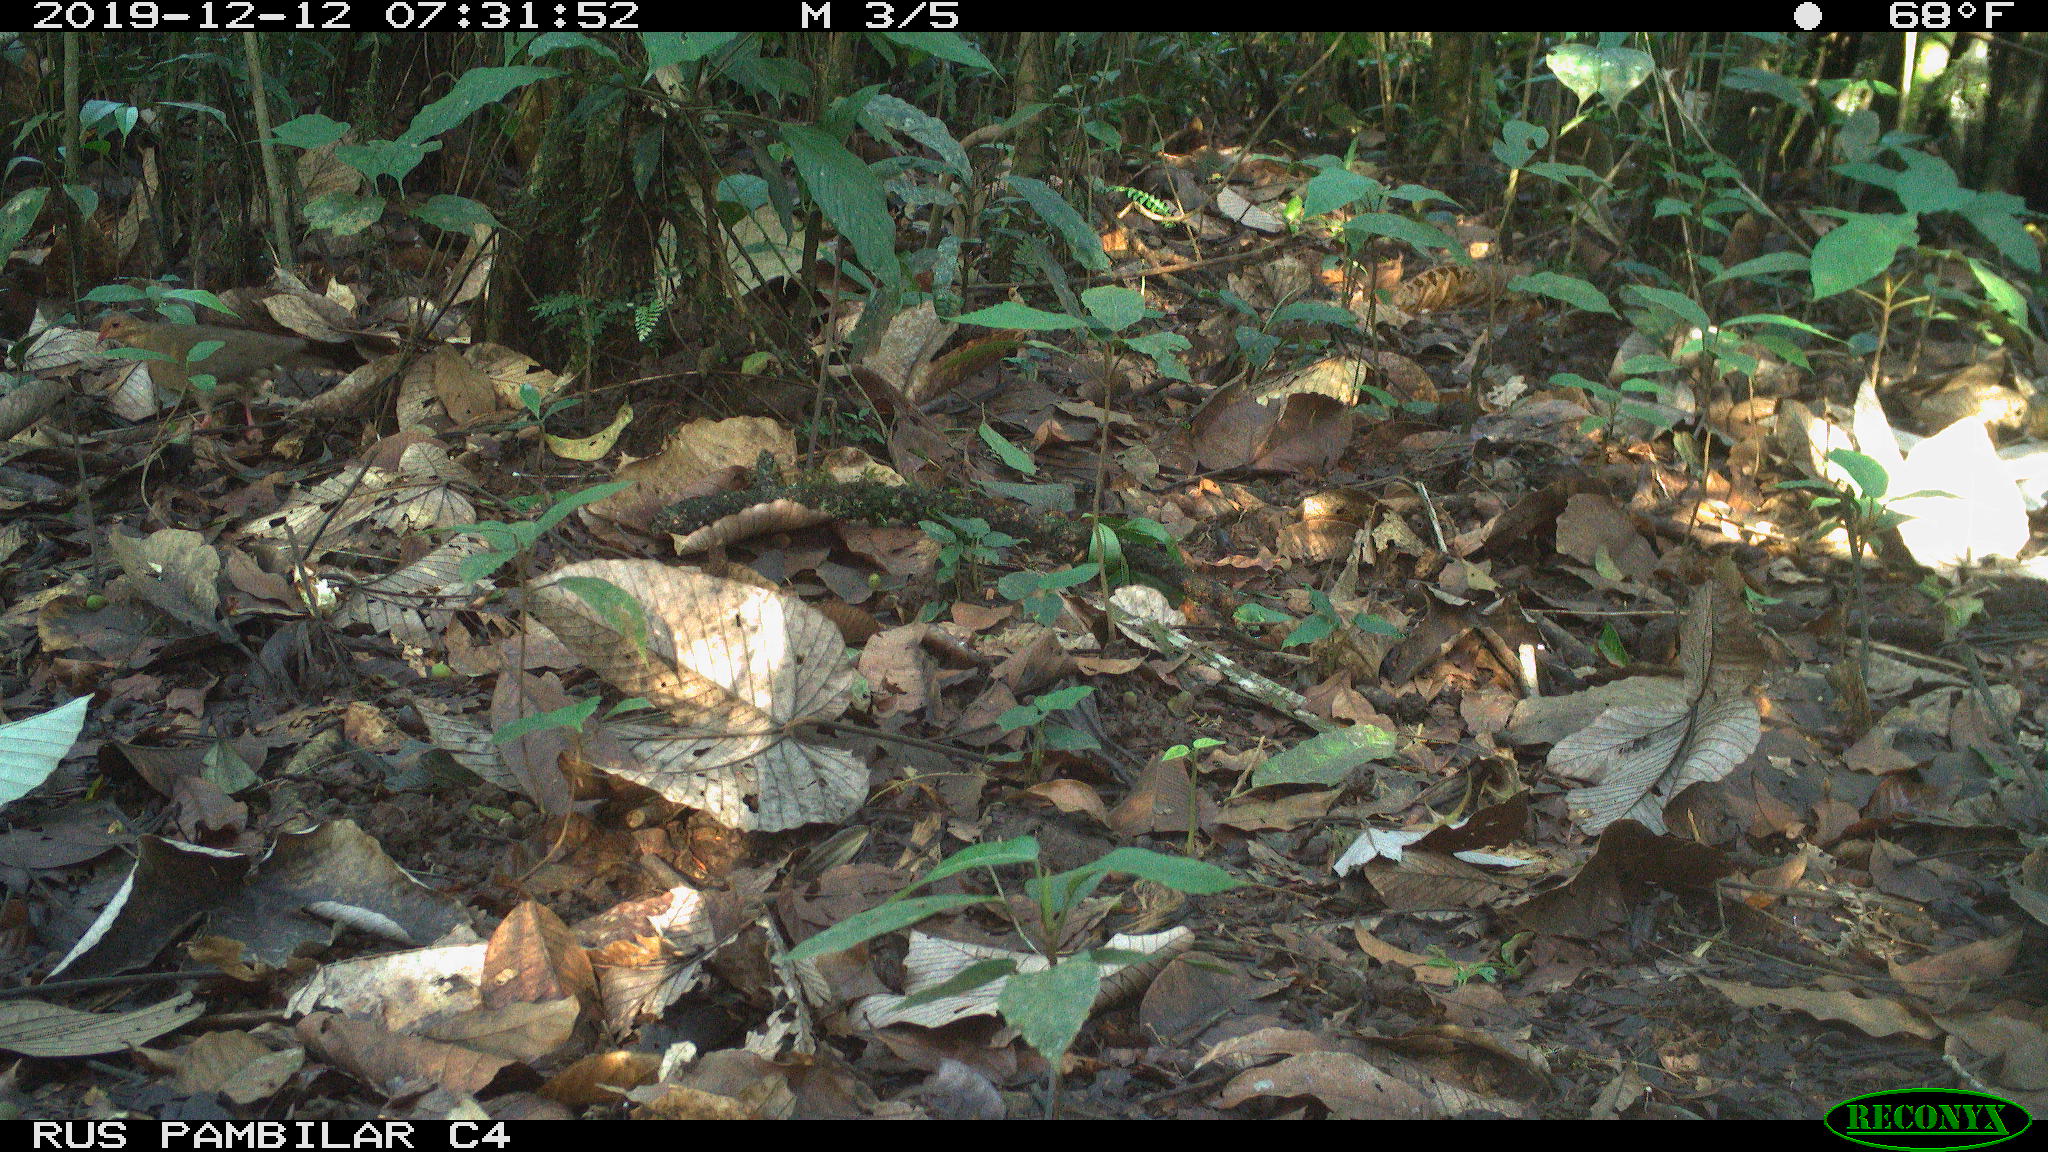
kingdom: Animalia
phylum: Chordata
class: Aves
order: Columbiformes
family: Columbidae
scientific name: Columbidae
